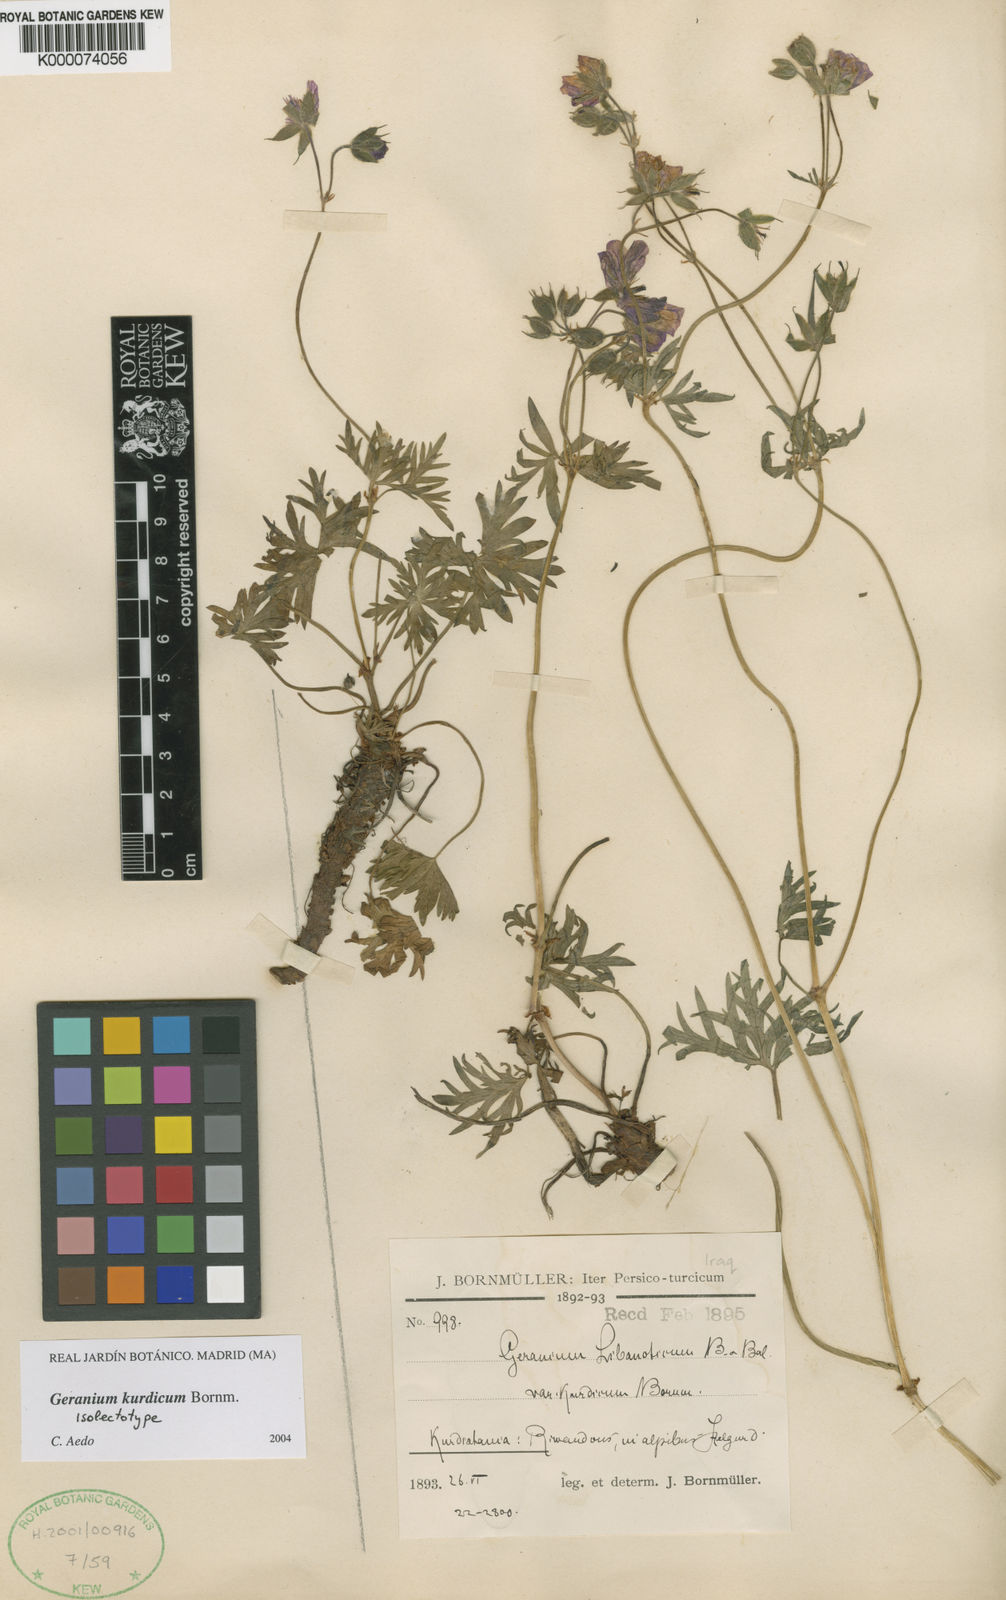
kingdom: Plantae
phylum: Tracheophyta
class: Magnoliopsida
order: Geraniales
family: Geraniaceae
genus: Geranium
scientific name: Geranium
